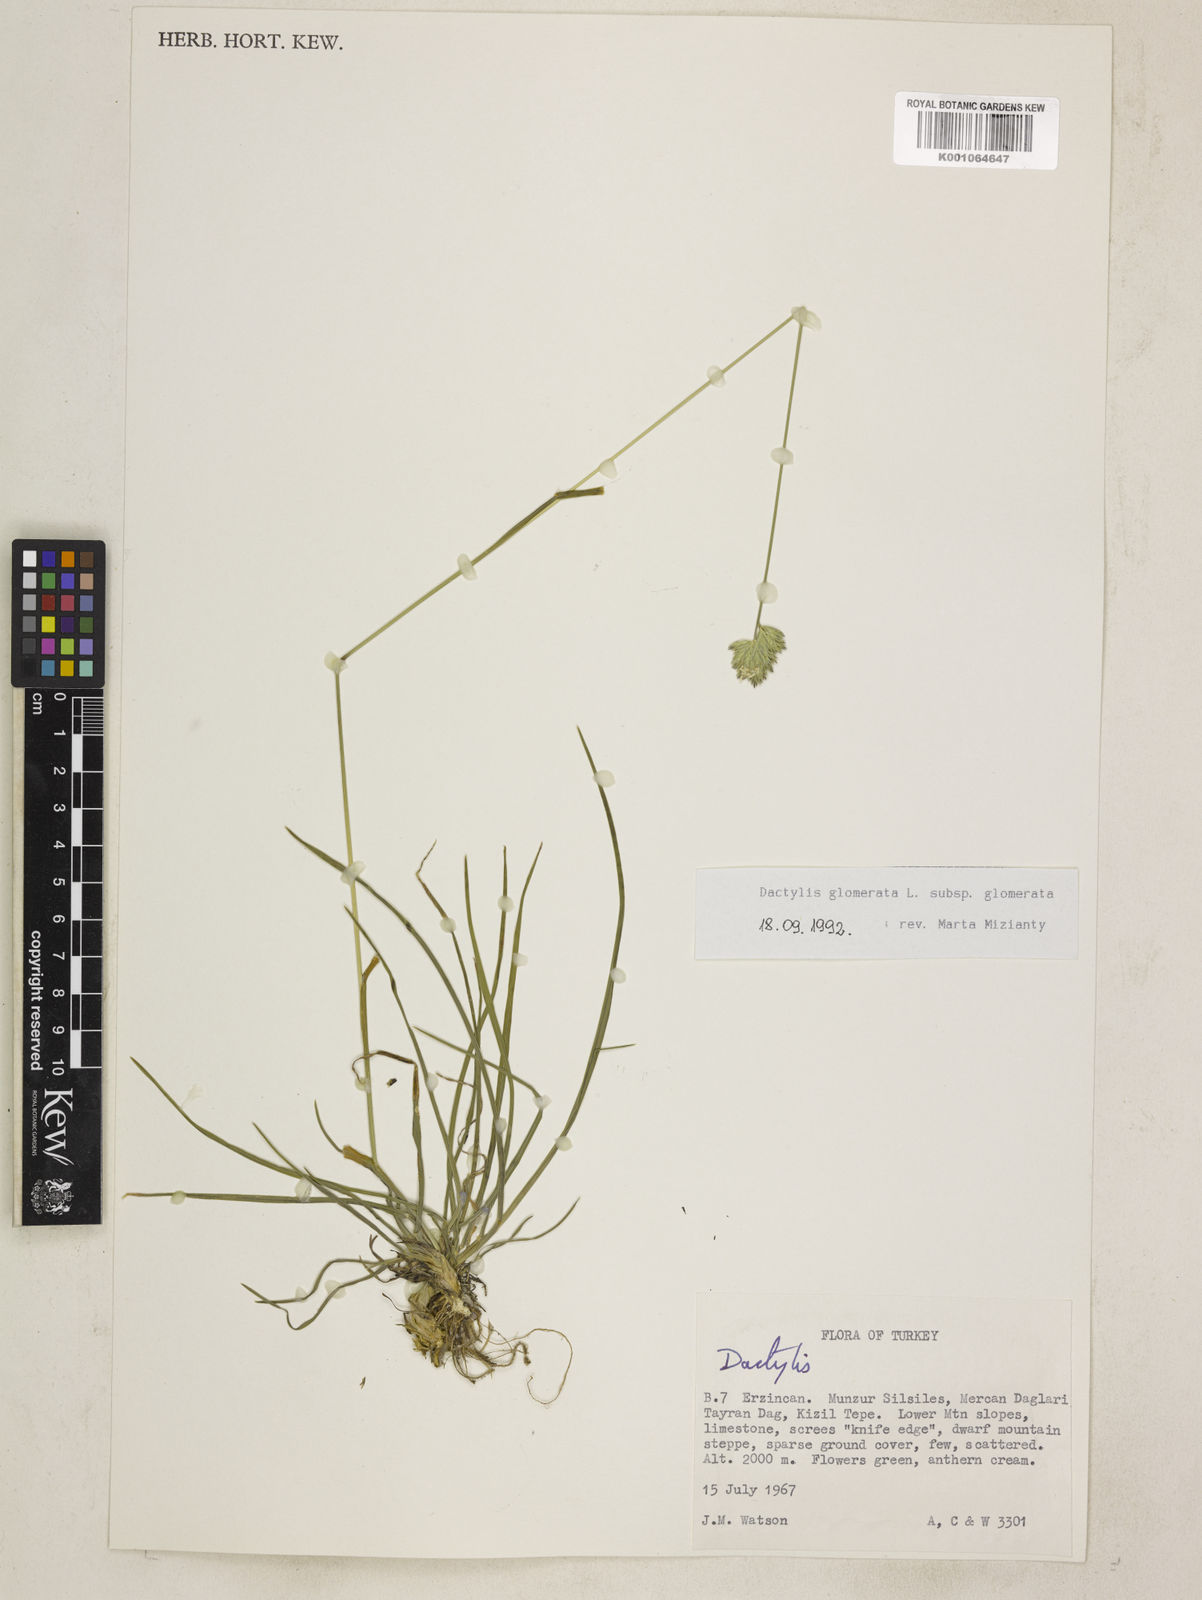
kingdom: Plantae
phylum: Tracheophyta
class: Liliopsida
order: Poales
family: Poaceae
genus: Dactylis
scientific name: Dactylis glomerata
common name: Orchardgrass
